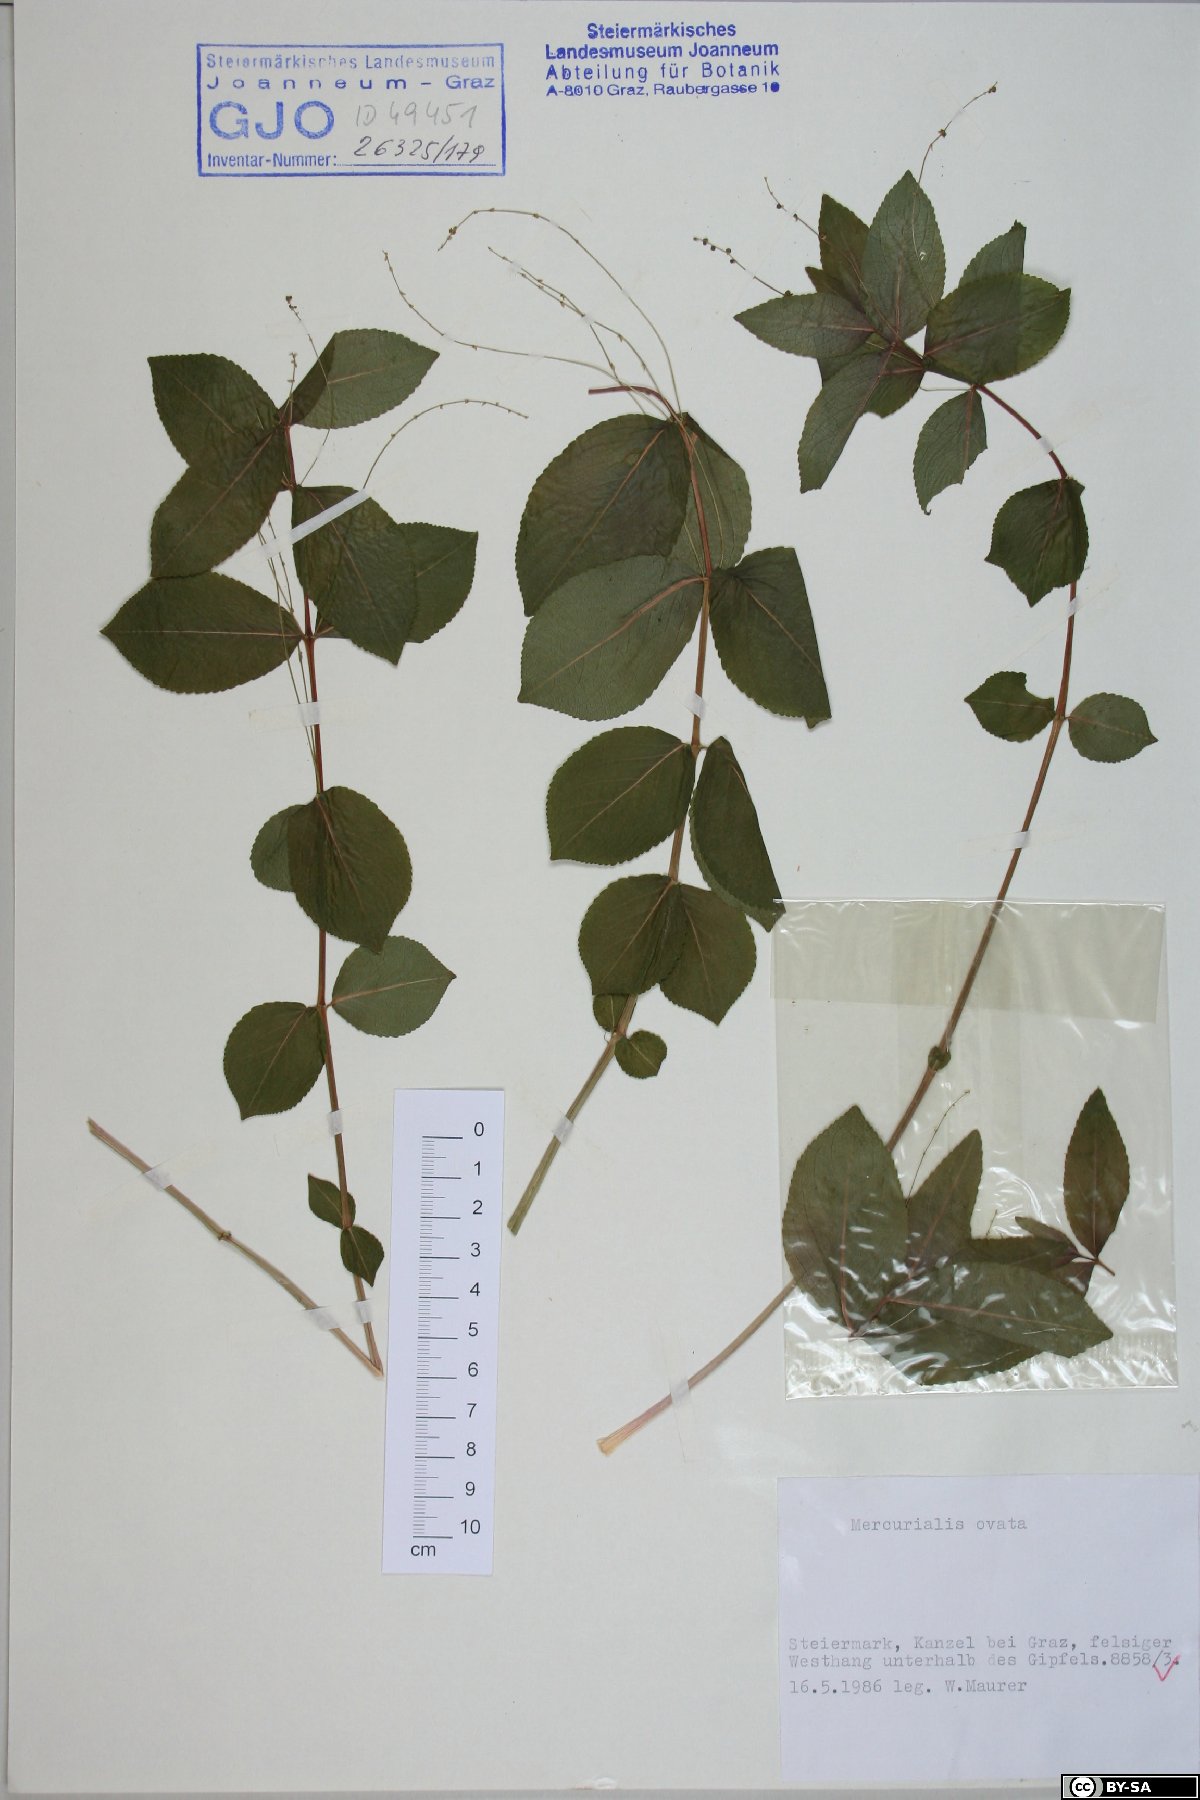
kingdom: Plantae
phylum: Tracheophyta
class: Magnoliopsida
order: Malpighiales
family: Euphorbiaceae
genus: Mercurialis
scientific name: Mercurialis ovata
